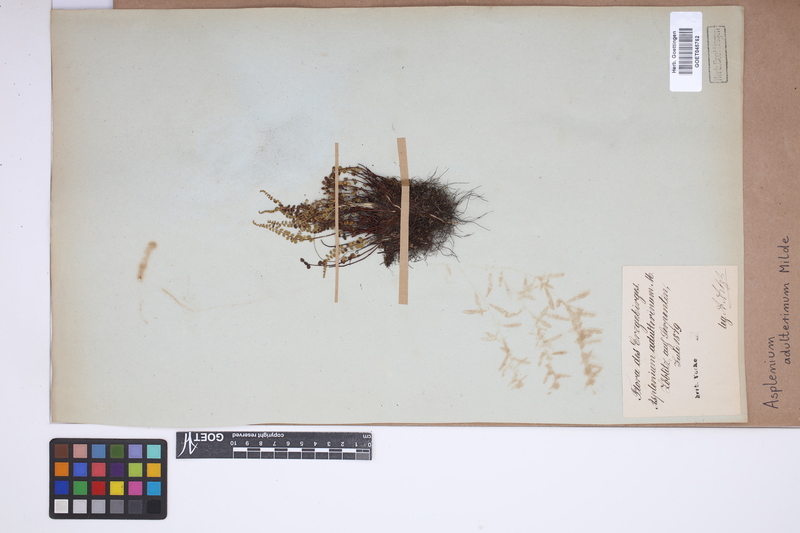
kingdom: Plantae
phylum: Tracheophyta
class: Polypodiopsida
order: Polypodiales
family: Aspleniaceae
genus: Asplenium
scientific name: Asplenium adulterinum
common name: Adulterated spleenwort
